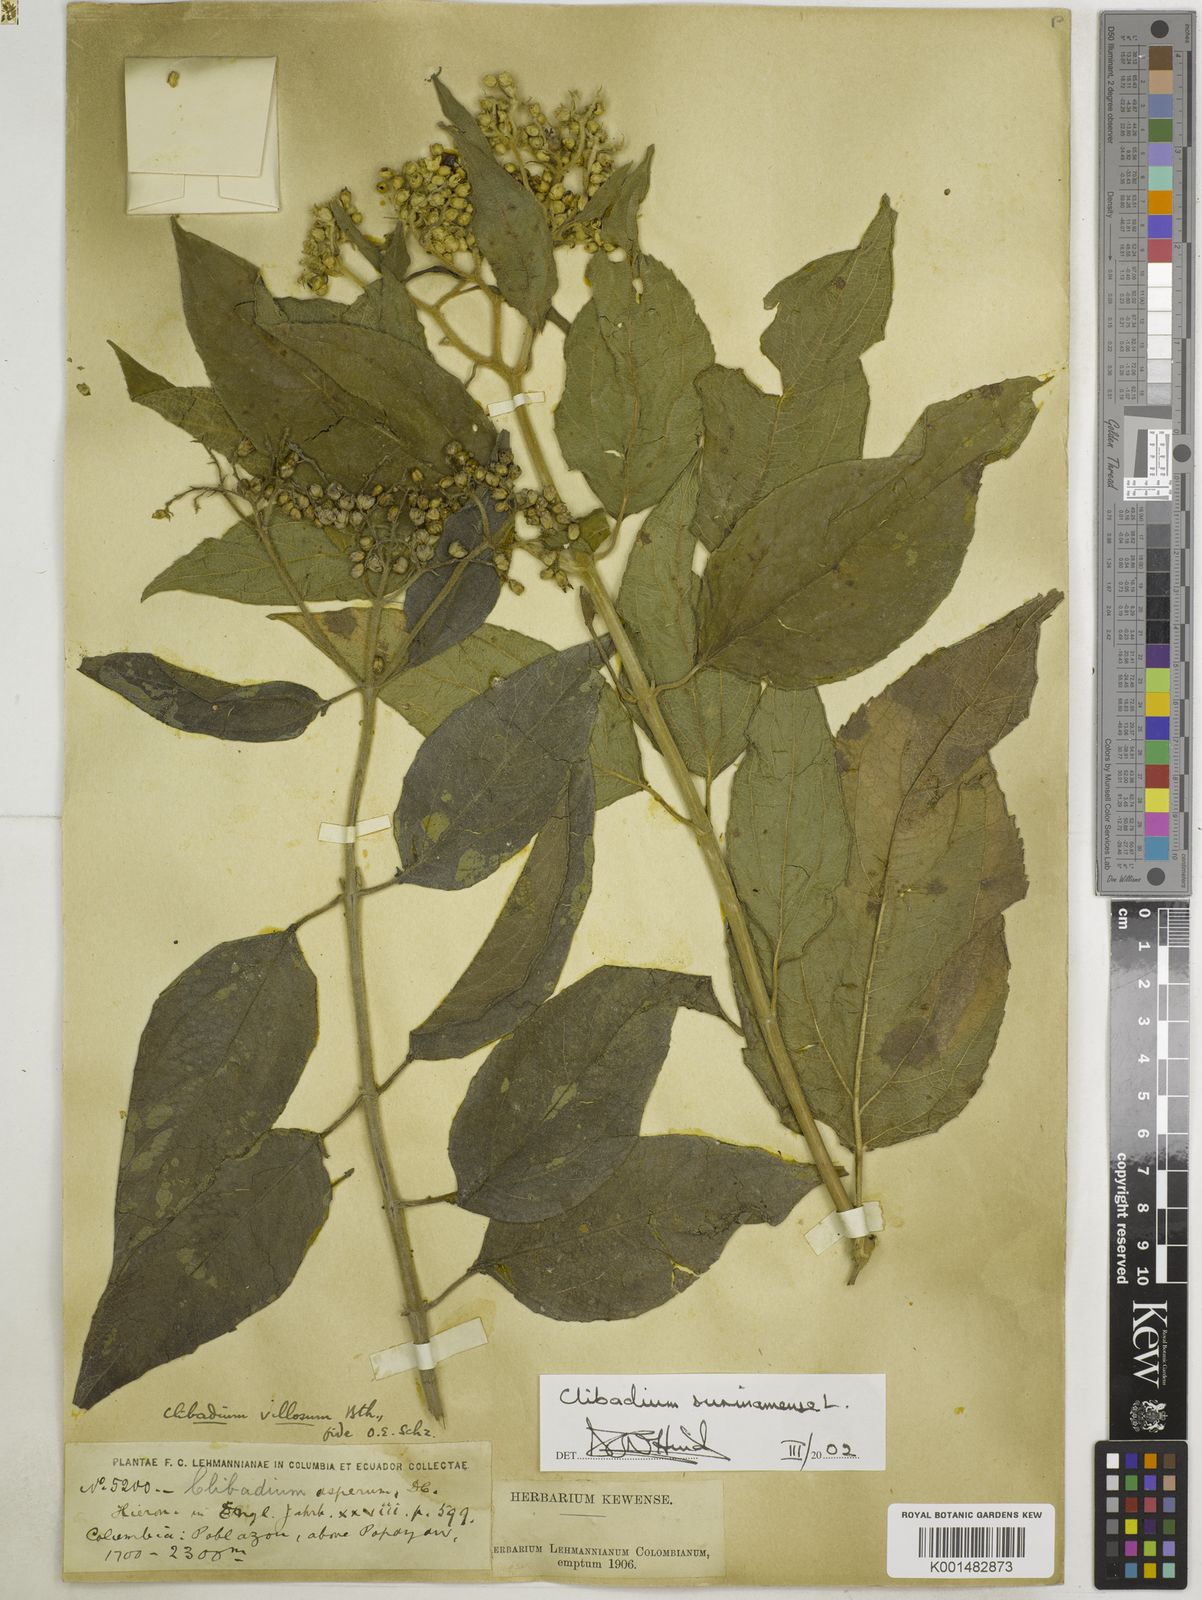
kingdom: Plantae
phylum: Tracheophyta
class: Magnoliopsida
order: Asterales
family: Asteraceae
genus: Clibadium
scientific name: Clibadium surinamense
